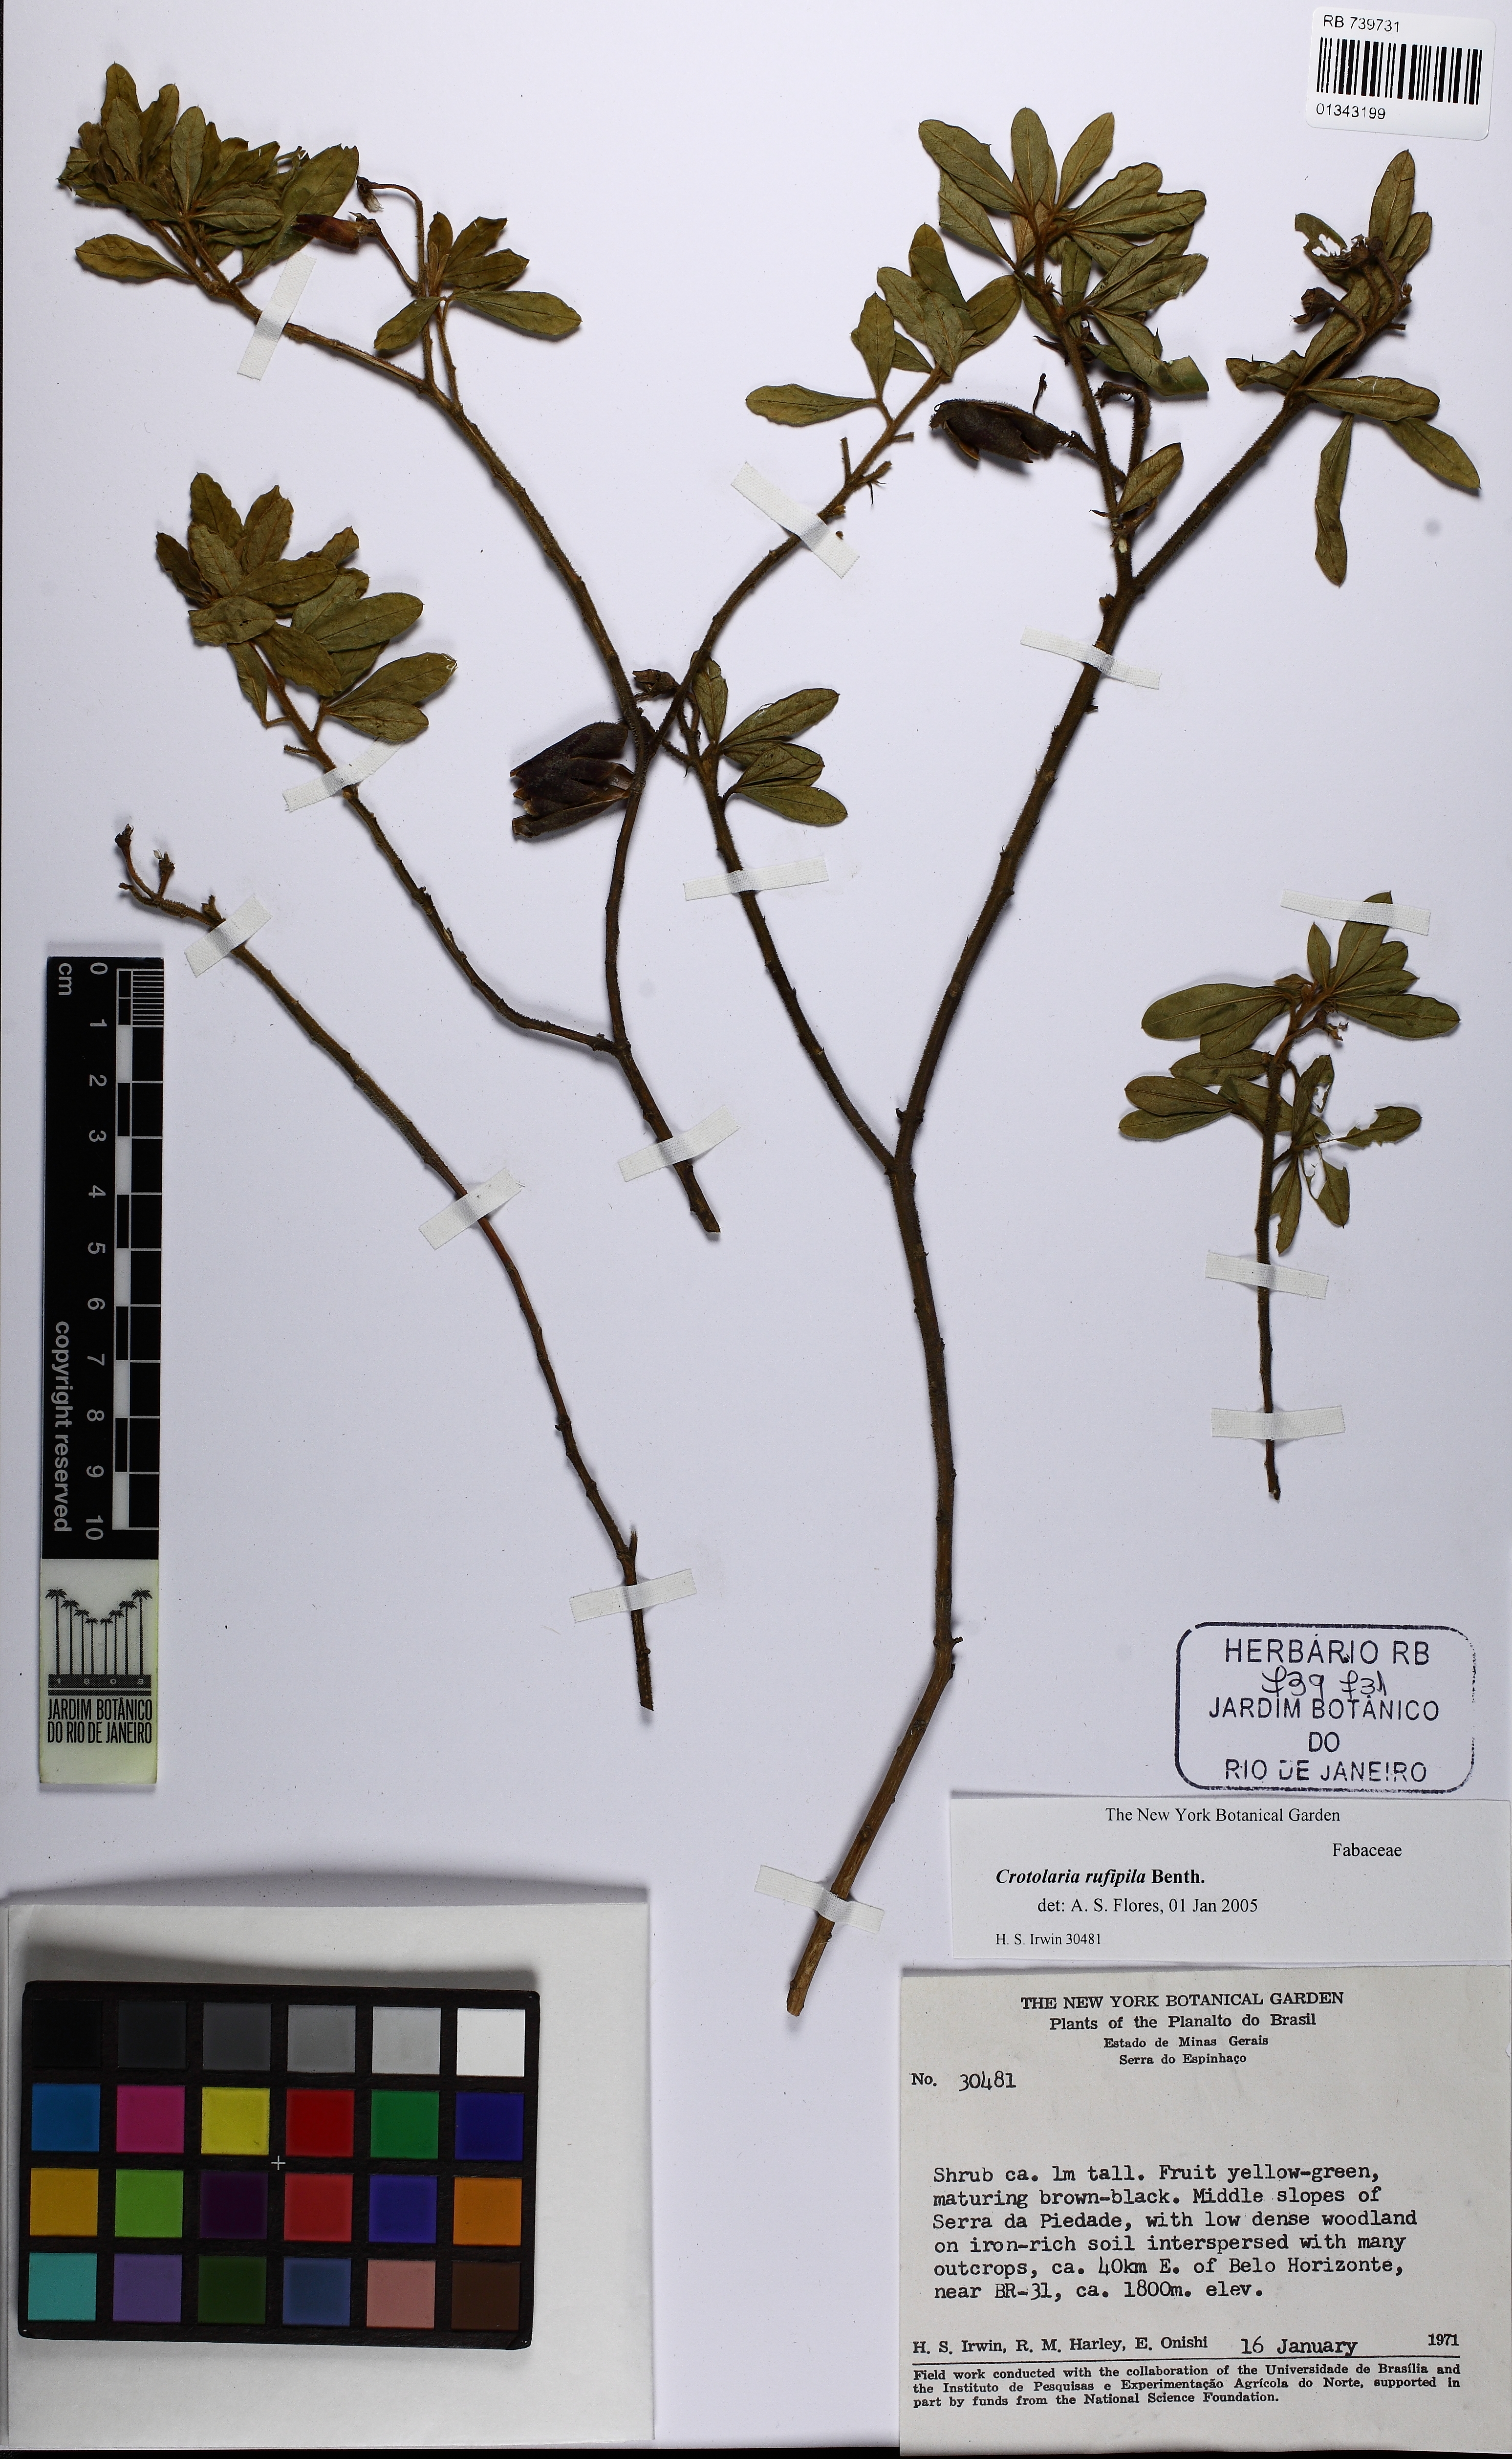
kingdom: Plantae
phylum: Tracheophyta
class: Magnoliopsida
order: Fabales
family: Fabaceae
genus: Crotalaria
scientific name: Crotalaria rufipila
